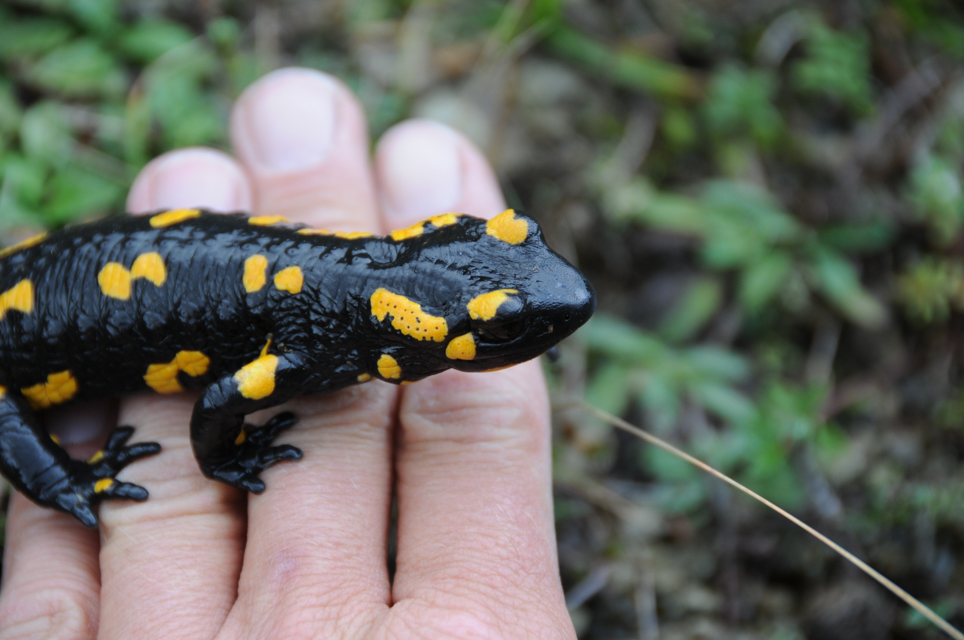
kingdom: Animalia
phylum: Chordata
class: Amphibia
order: Caudata
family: Salamandridae
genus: Salamandra
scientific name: Salamandra
